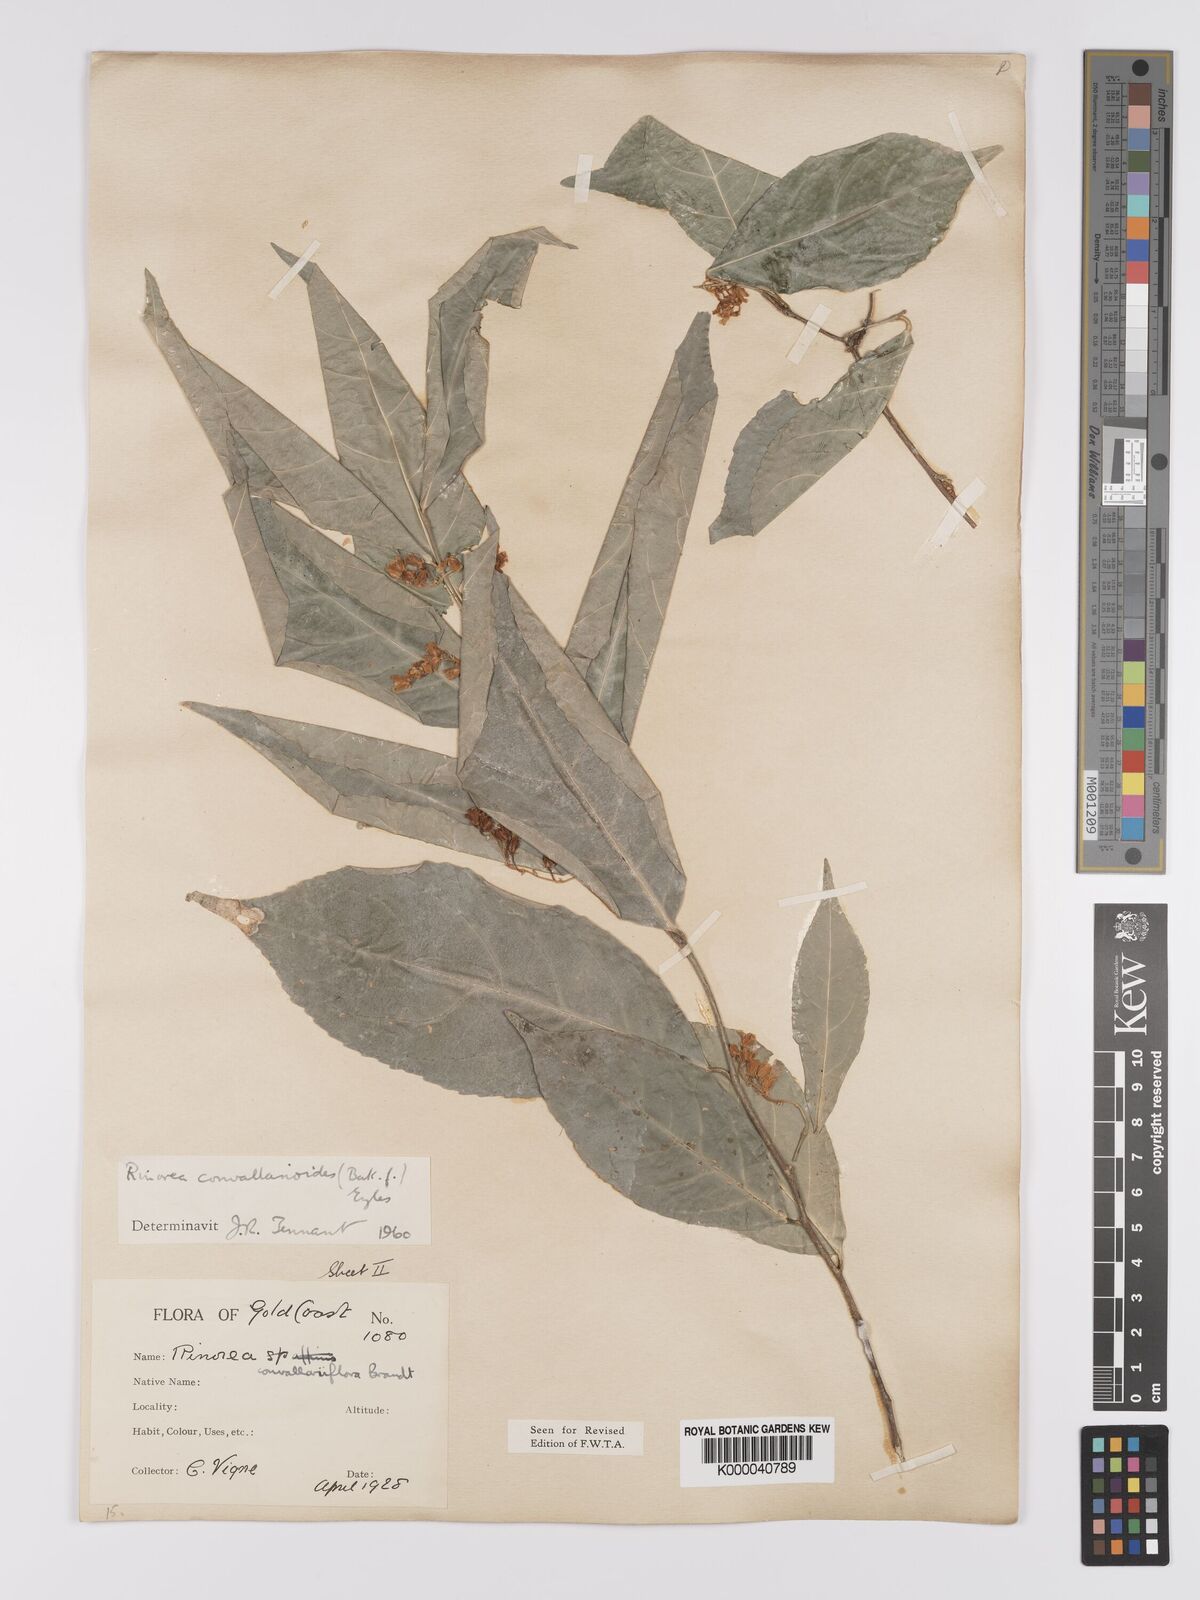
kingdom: Plantae
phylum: Tracheophyta
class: Magnoliopsida
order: Malpighiales
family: Violaceae
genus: Rinorea
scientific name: Rinorea convallarioides
